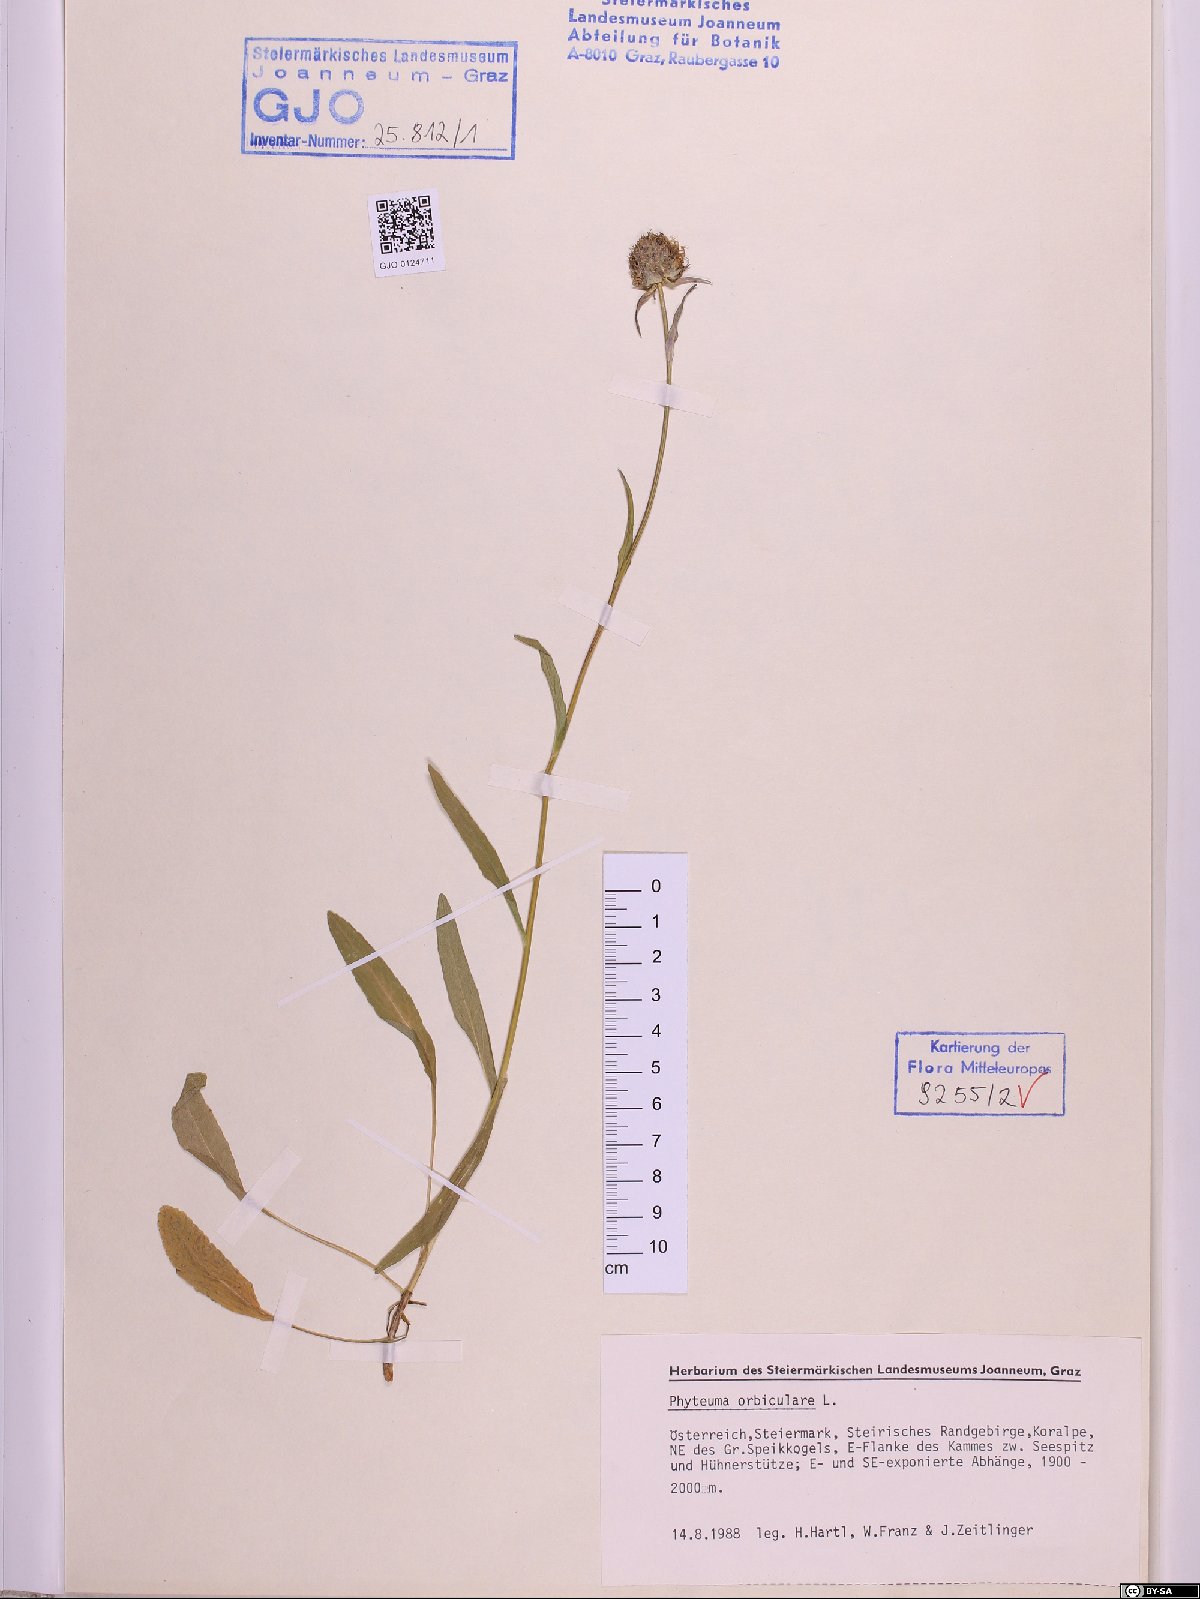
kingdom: Plantae
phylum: Tracheophyta
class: Magnoliopsida
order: Asterales
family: Campanulaceae
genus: Phyteuma
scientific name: Phyteuma orbiculare
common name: Round-headed rampion
